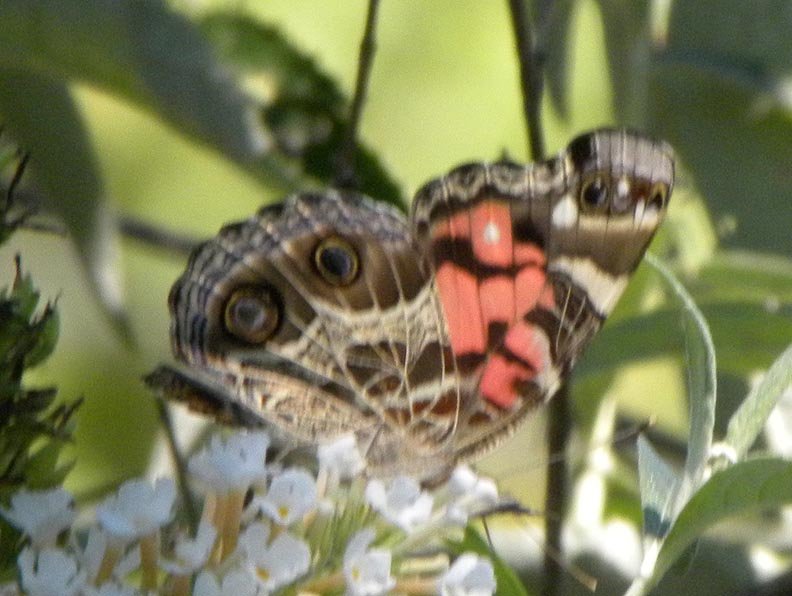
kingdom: Animalia
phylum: Arthropoda
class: Insecta
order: Lepidoptera
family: Nymphalidae
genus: Vanessa
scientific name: Vanessa virginiensis
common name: American Lady
